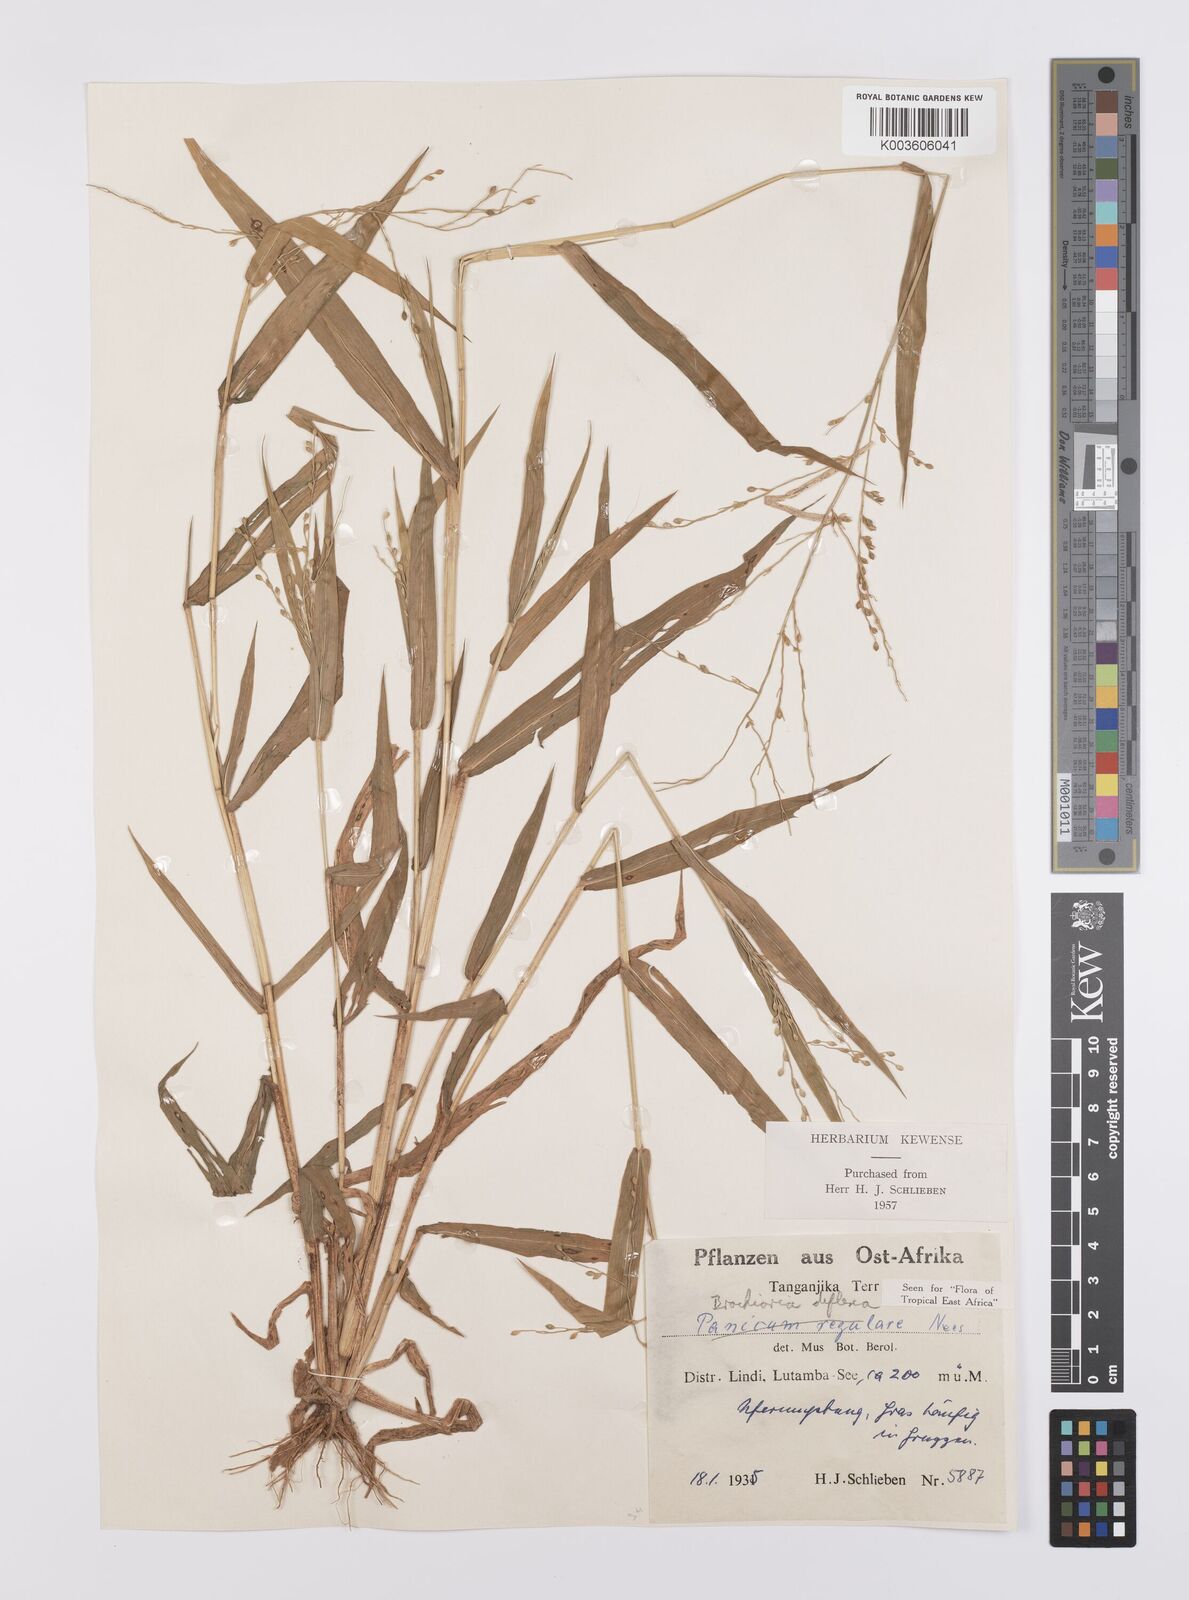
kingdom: Plantae
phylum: Tracheophyta
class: Liliopsida
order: Poales
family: Poaceae
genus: Urochloa
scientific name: Urochloa deflexa
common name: Guinea millet
